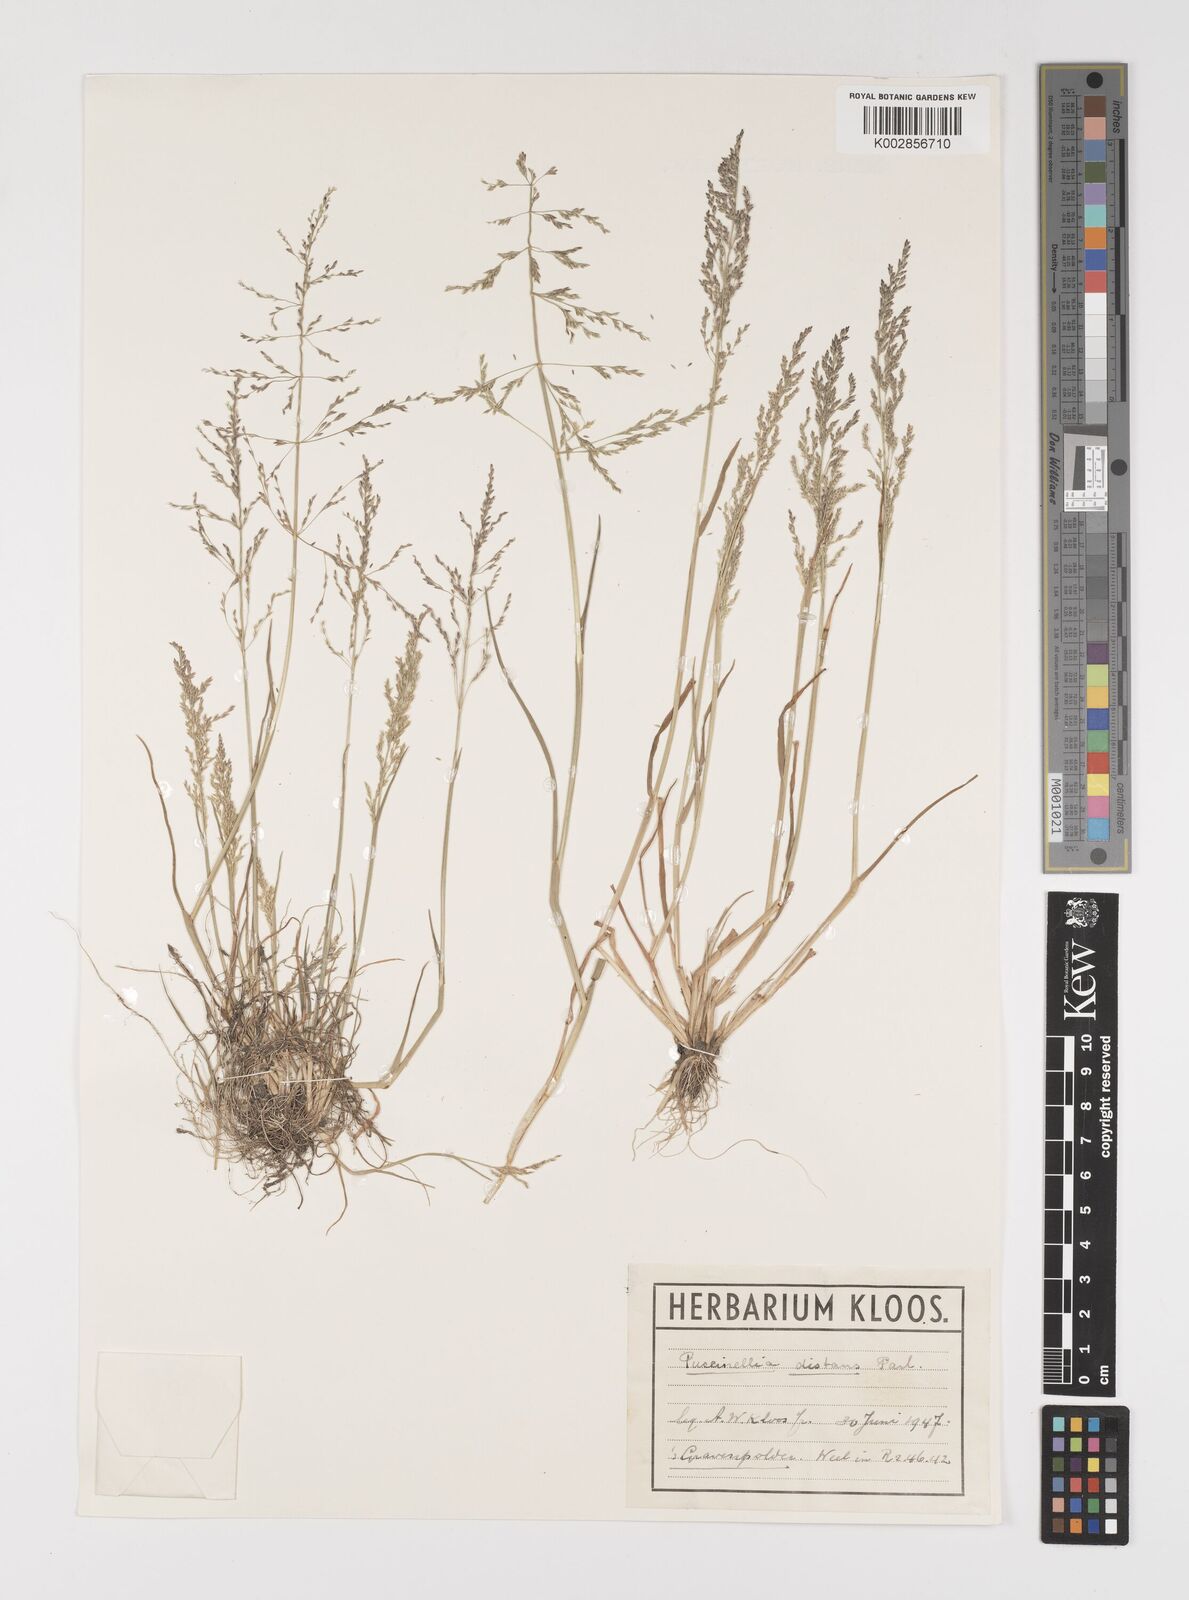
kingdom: Plantae
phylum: Tracheophyta
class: Liliopsida
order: Poales
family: Poaceae
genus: Puccinellia
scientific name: Puccinellia distans
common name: Weeping alkaligrass
